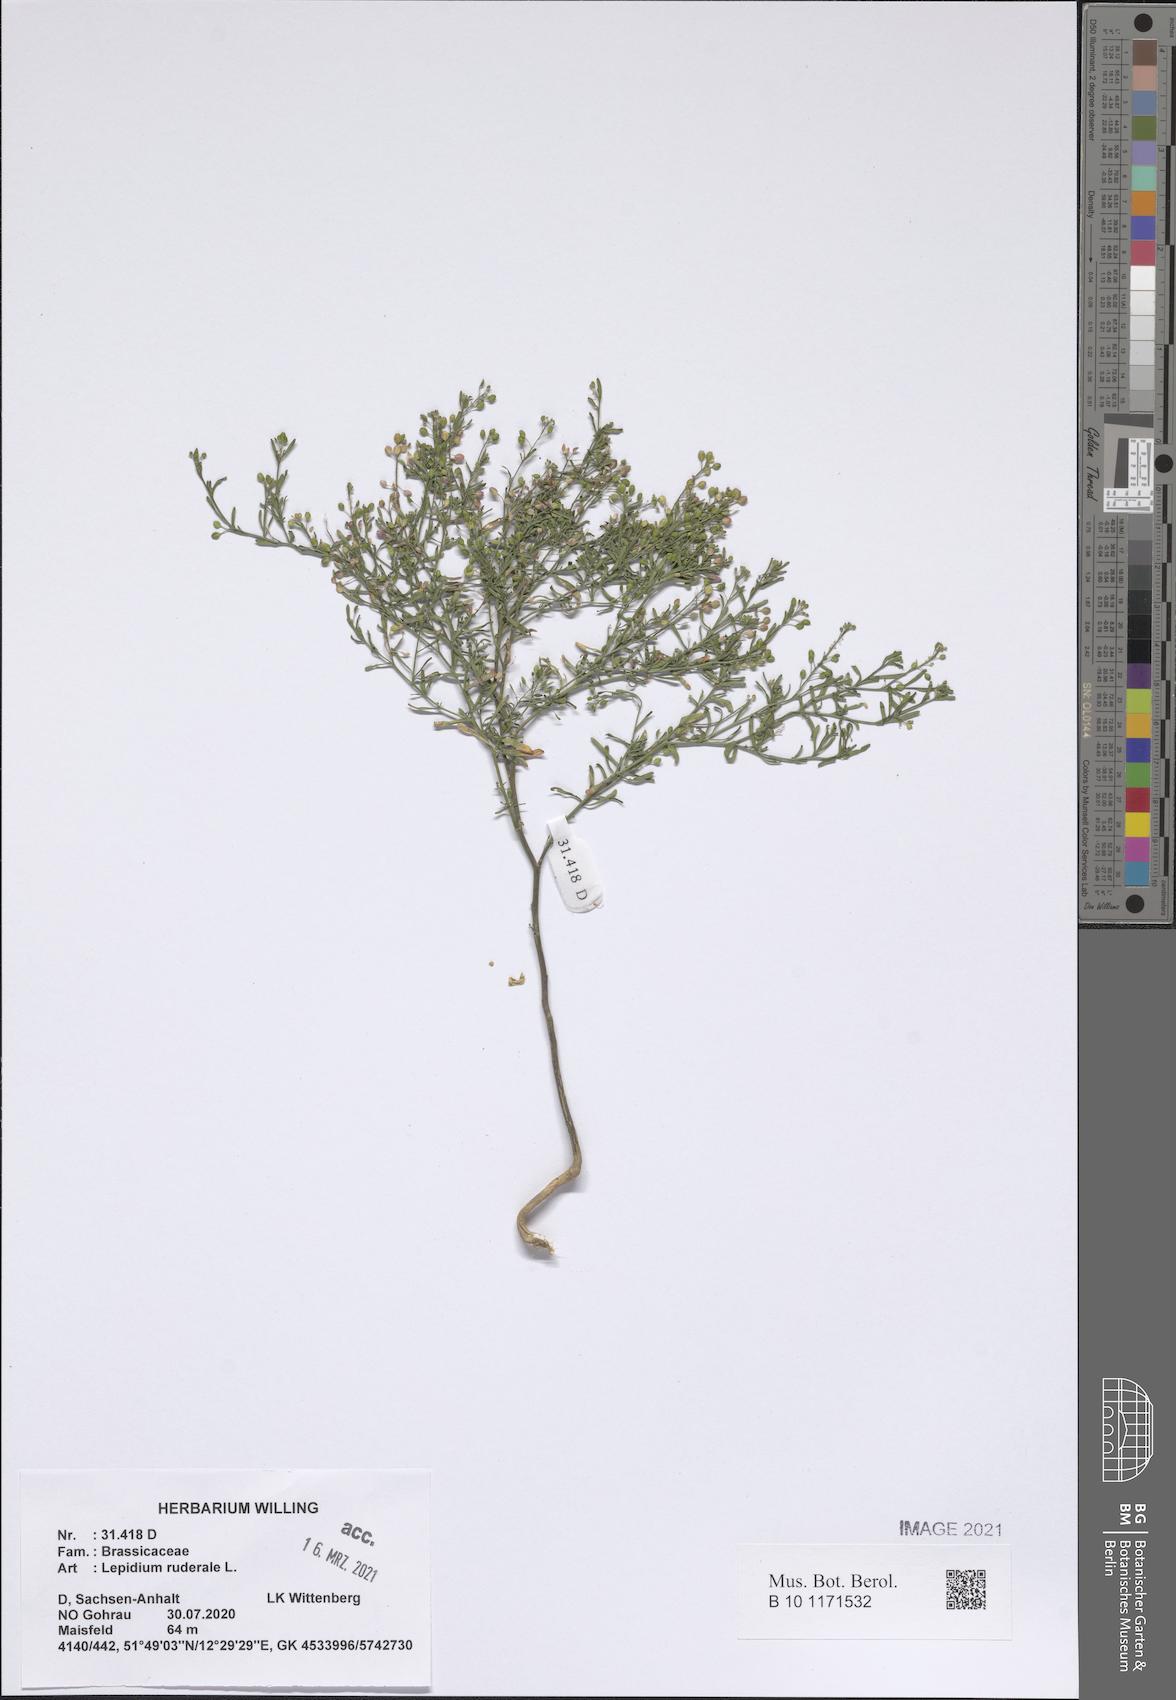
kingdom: Plantae
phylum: Tracheophyta
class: Magnoliopsida
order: Brassicales
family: Brassicaceae
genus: Lepidium
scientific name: Lepidium ruderale
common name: Narrow-leaved pepperwort
